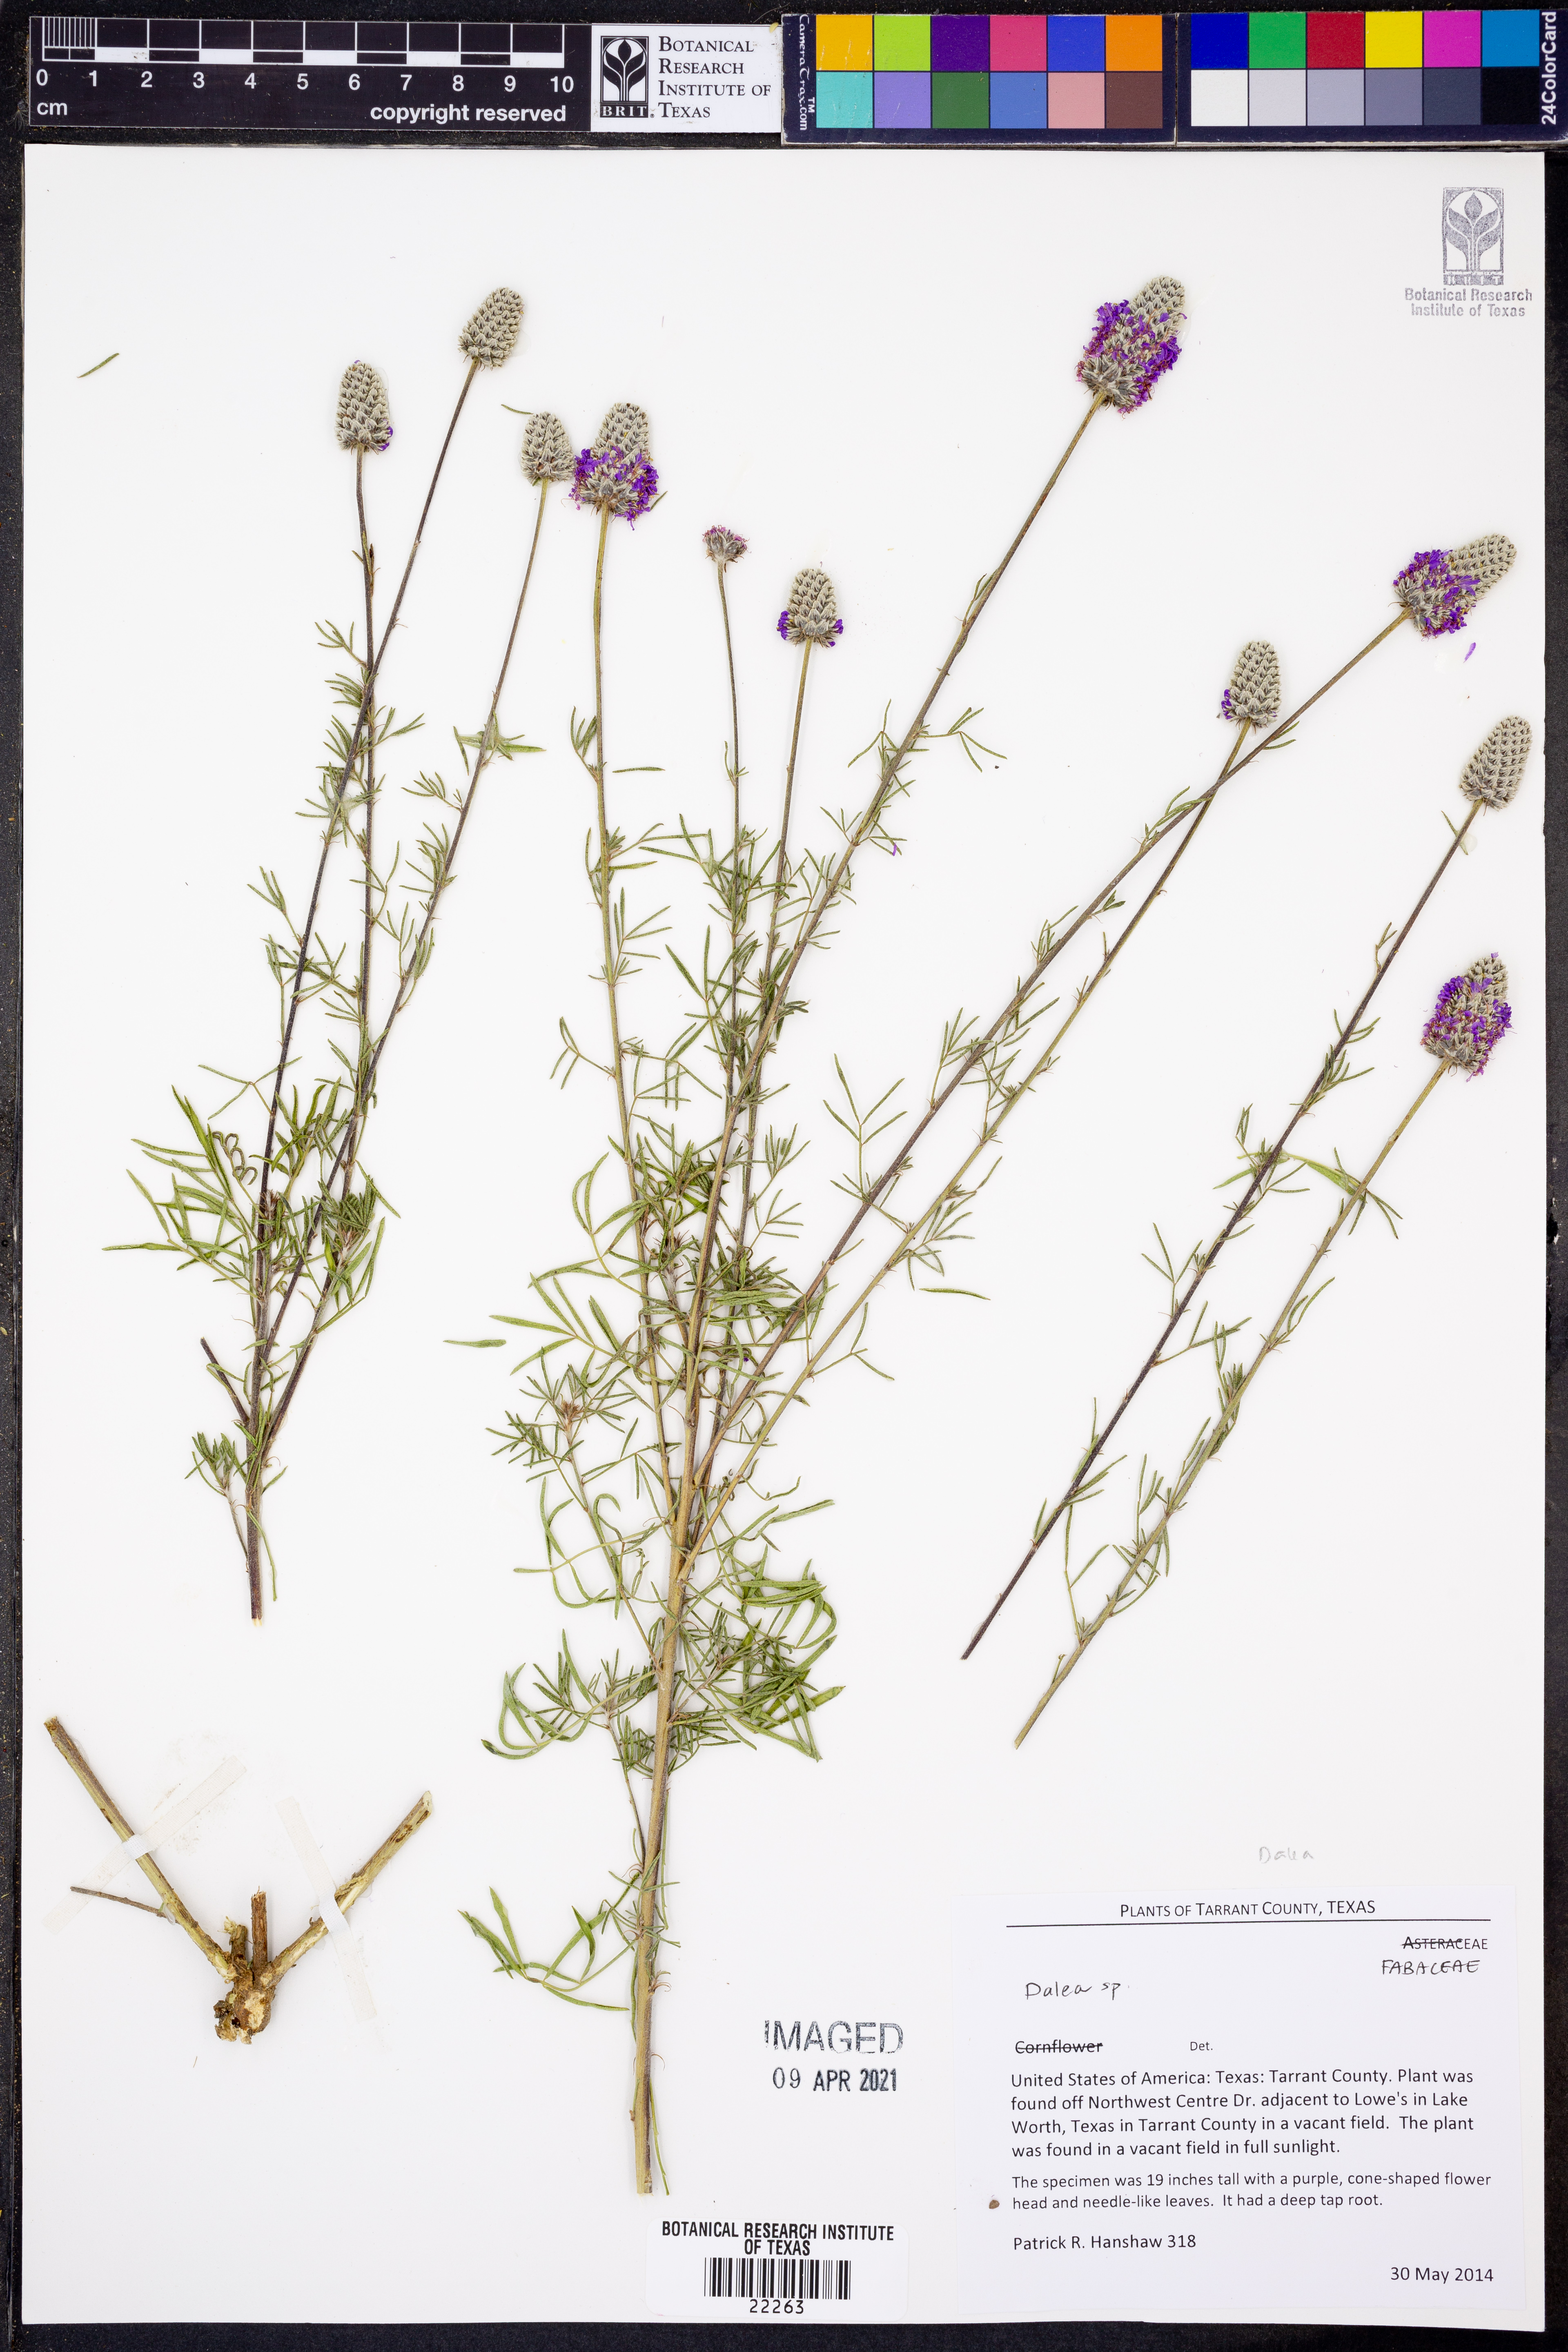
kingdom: Plantae
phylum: Tracheophyta
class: Magnoliopsida
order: Fabales
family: Fabaceae
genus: Dalea
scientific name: Dalea
